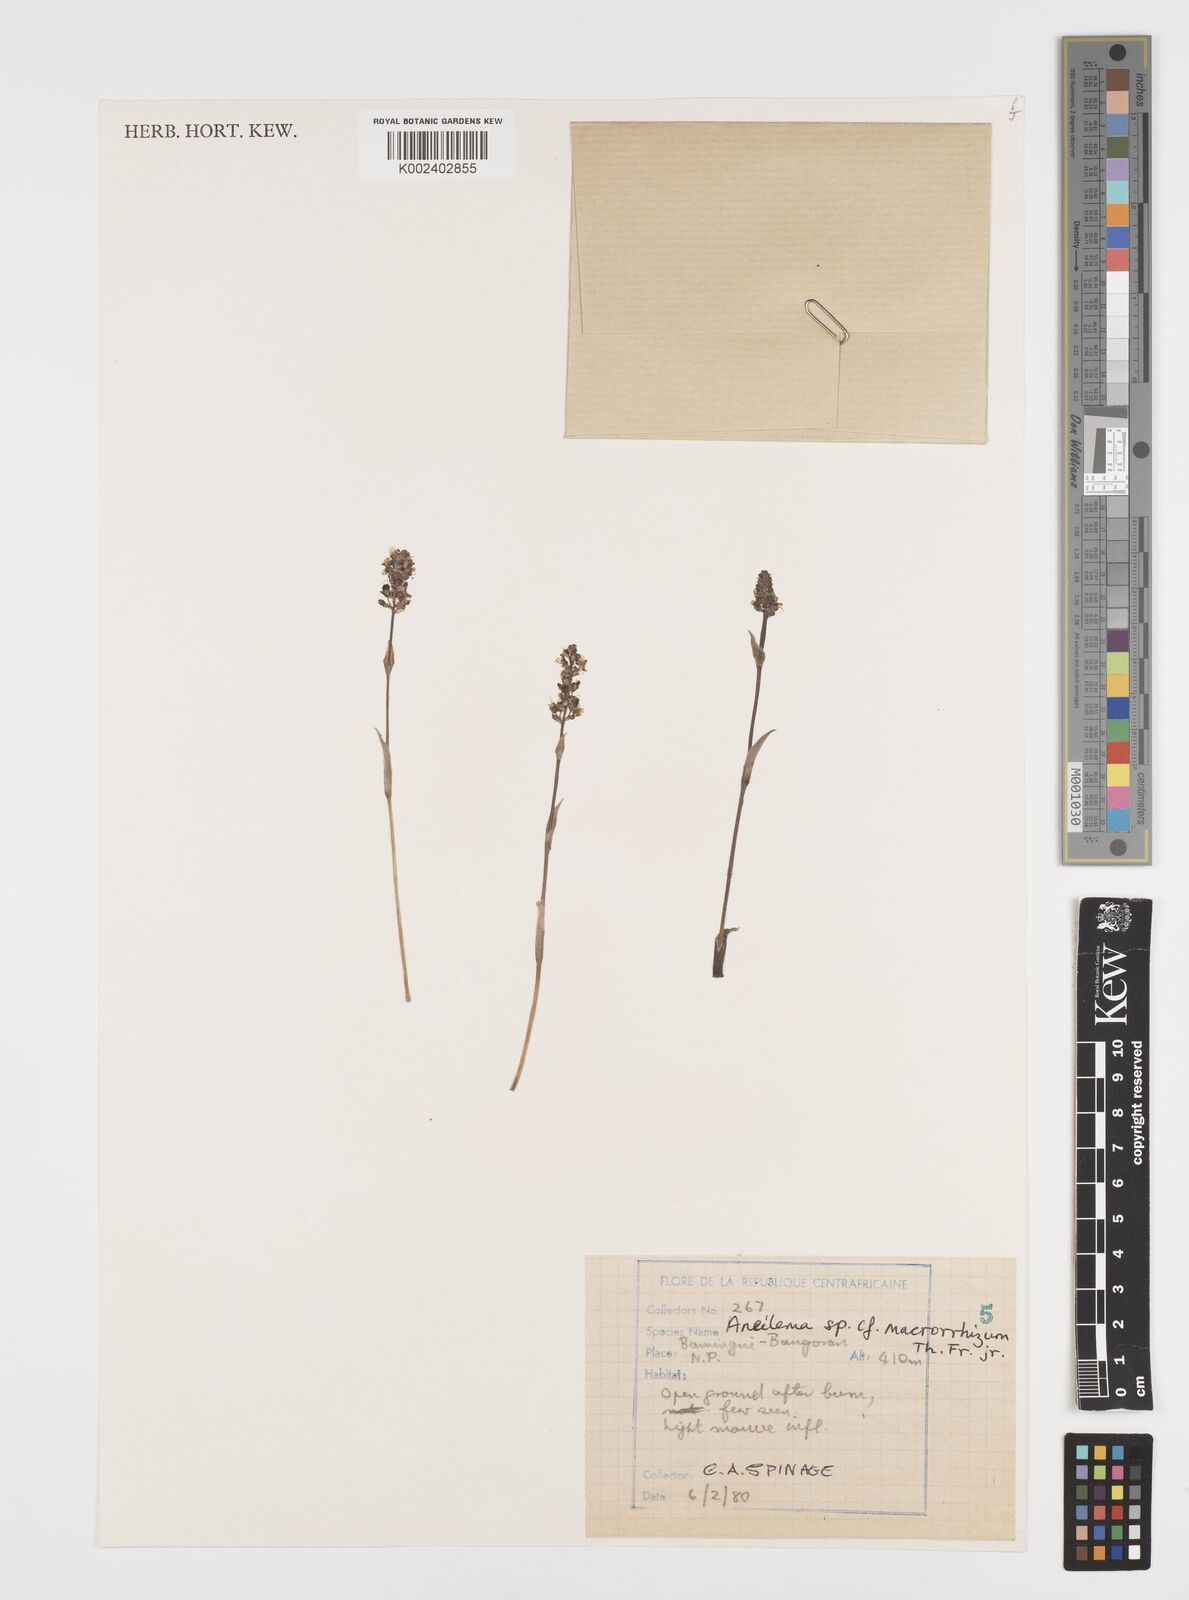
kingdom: Plantae
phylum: Tracheophyta
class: Liliopsida
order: Commelinales
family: Commelinaceae
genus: Aneilema
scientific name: Aneilema macrorrhizum
